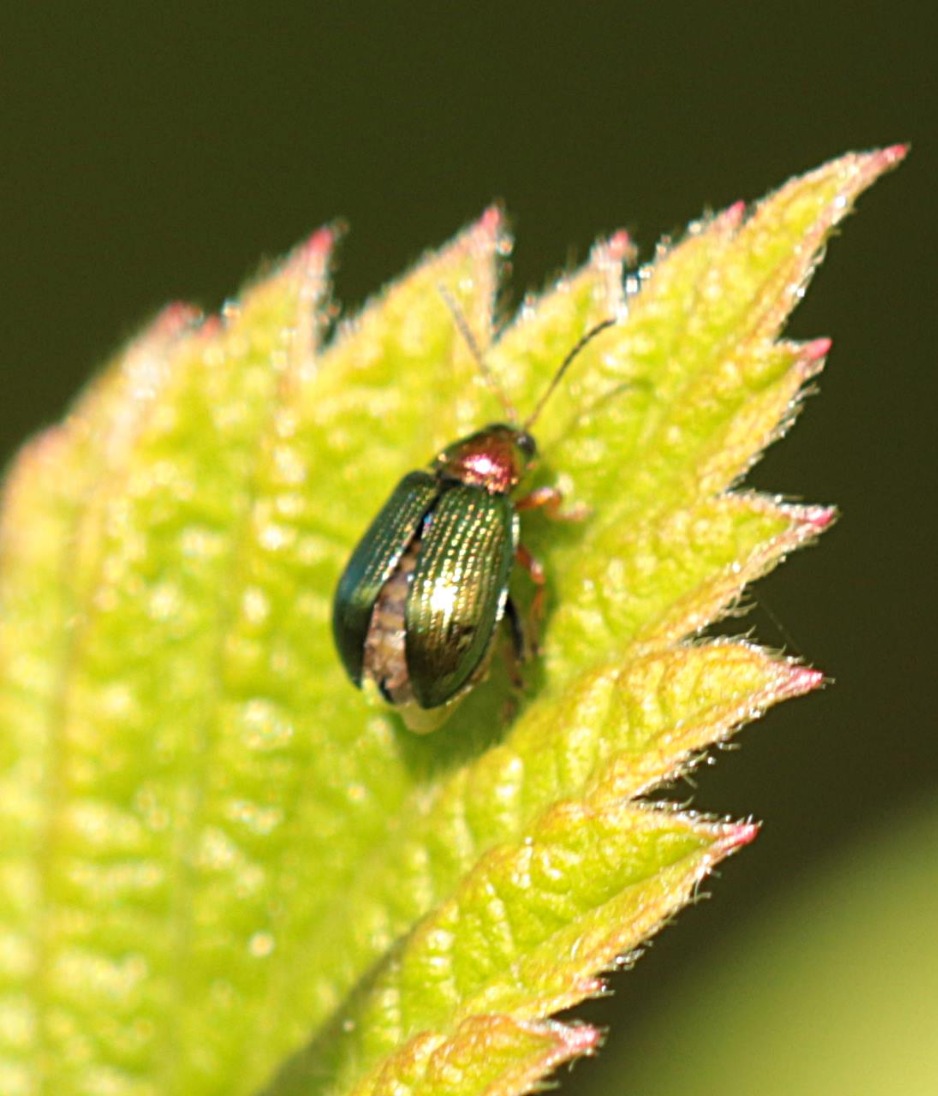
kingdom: Animalia
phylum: Arthropoda
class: Insecta
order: Coleoptera
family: Chrysomelidae
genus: Crepidodera
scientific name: Crepidodera aurata
